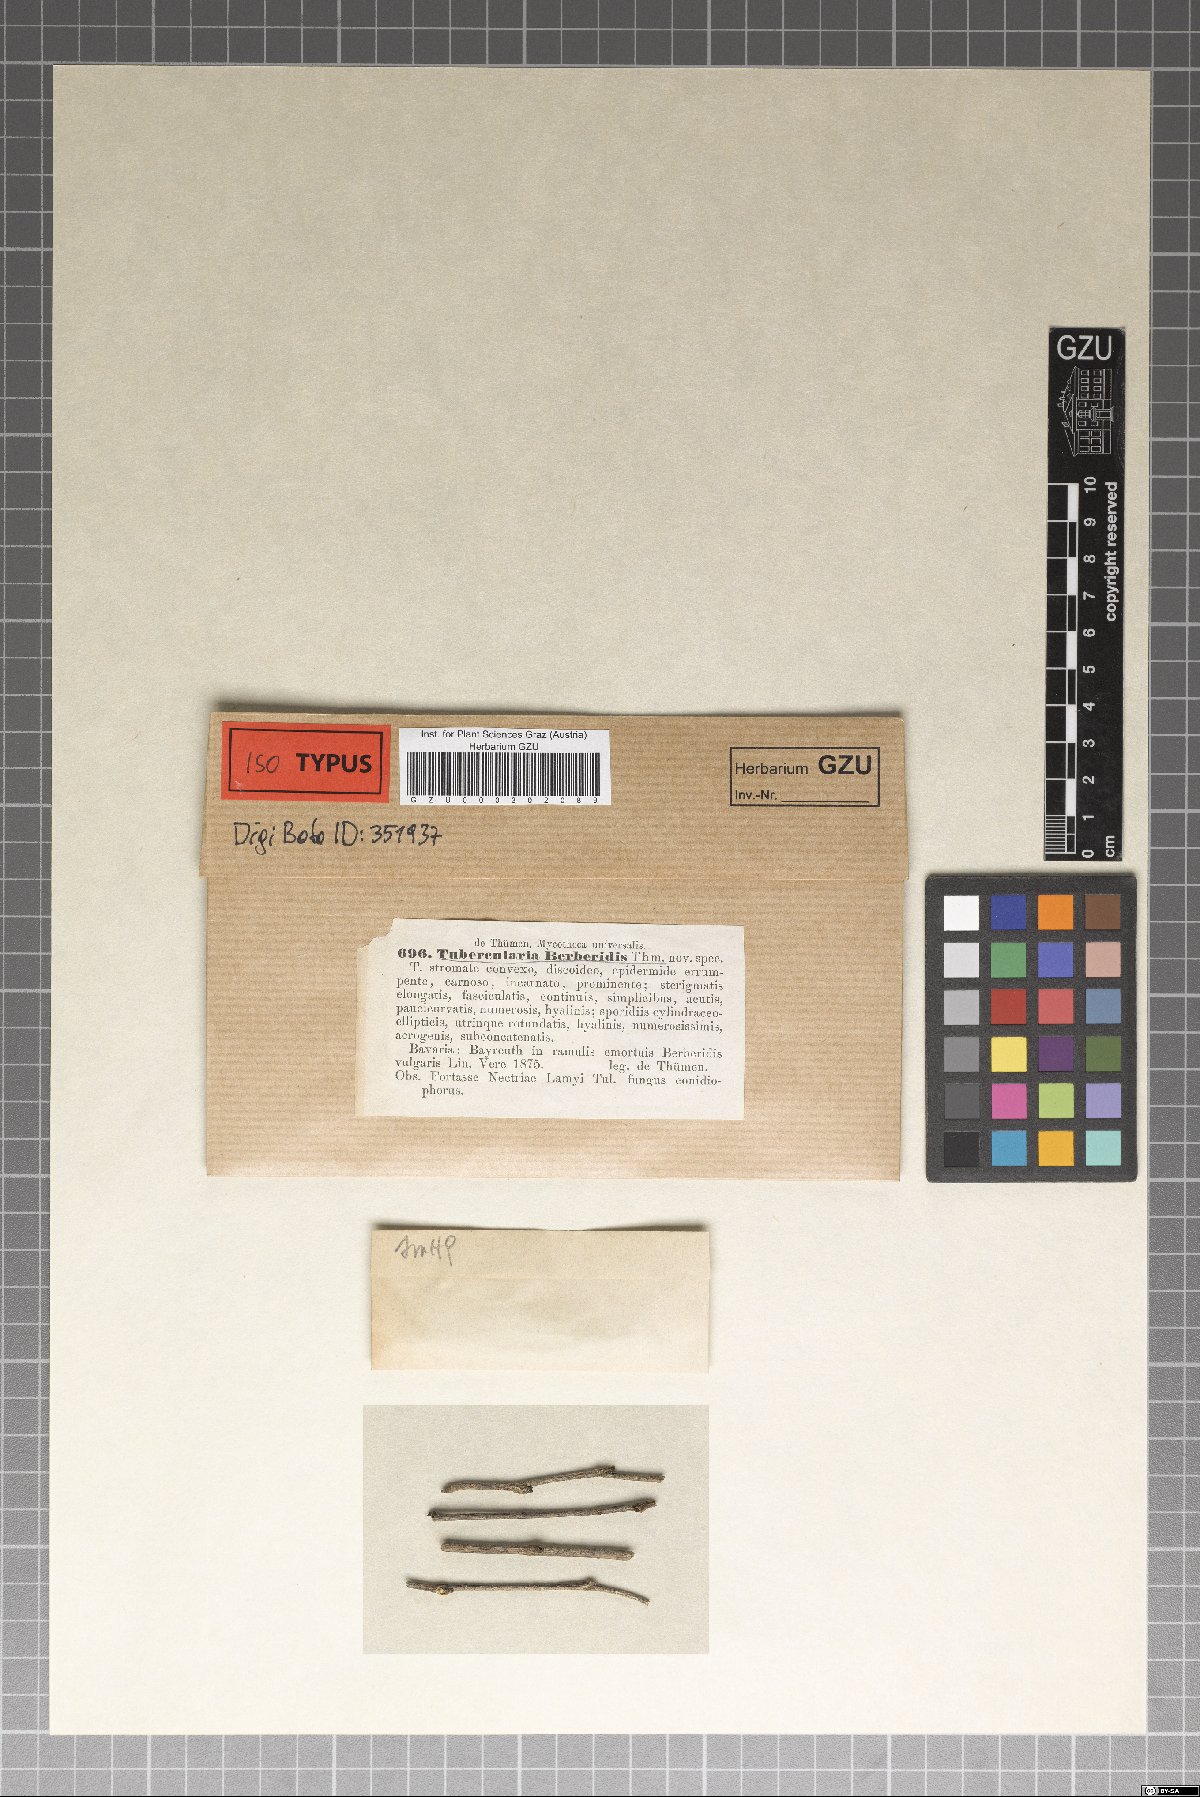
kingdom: Fungi
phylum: Ascomycota
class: Sordariomycetes
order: Hypocreales
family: Nectriaceae
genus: Tubercularia
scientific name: Tubercularia berberidis
